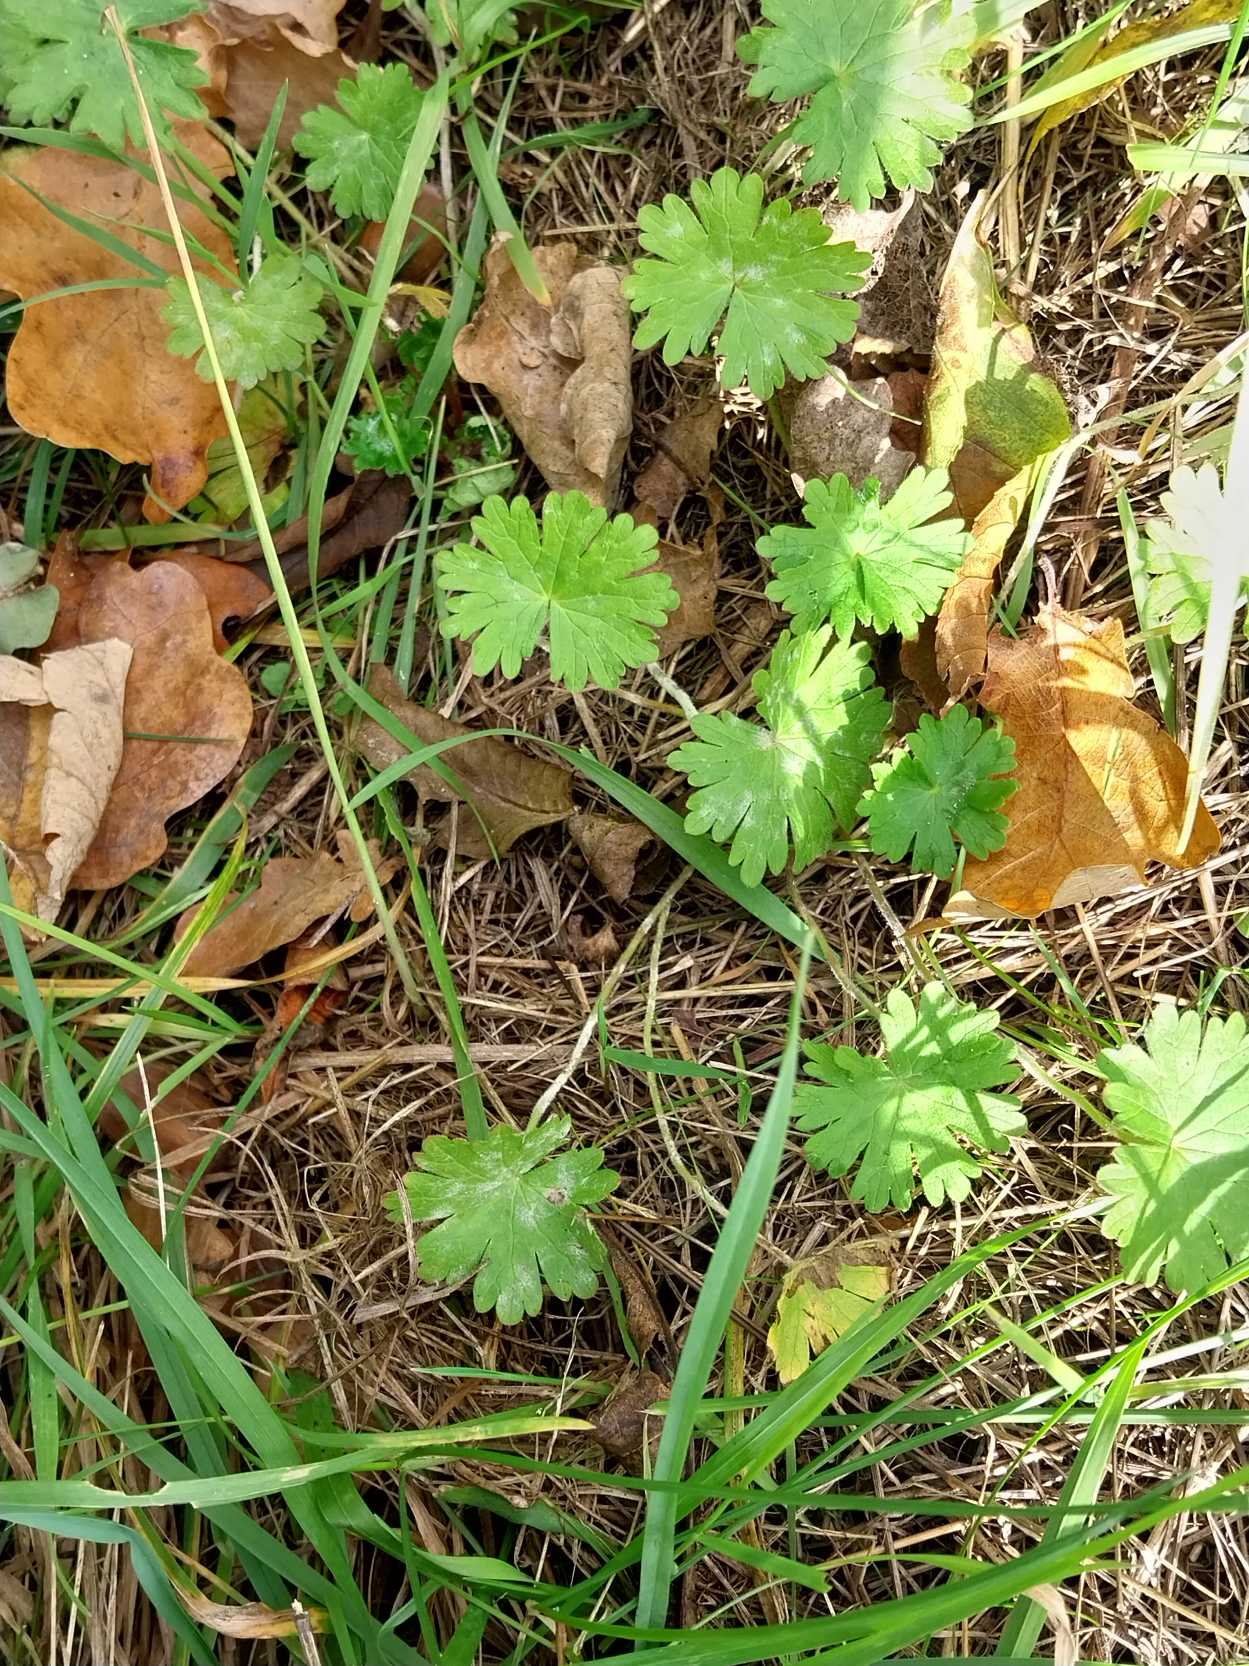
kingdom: Plantae
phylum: Tracheophyta
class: Magnoliopsida
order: Geraniales
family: Geraniaceae
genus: Geranium
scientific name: Geranium pusillum
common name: Liden storkenæb
